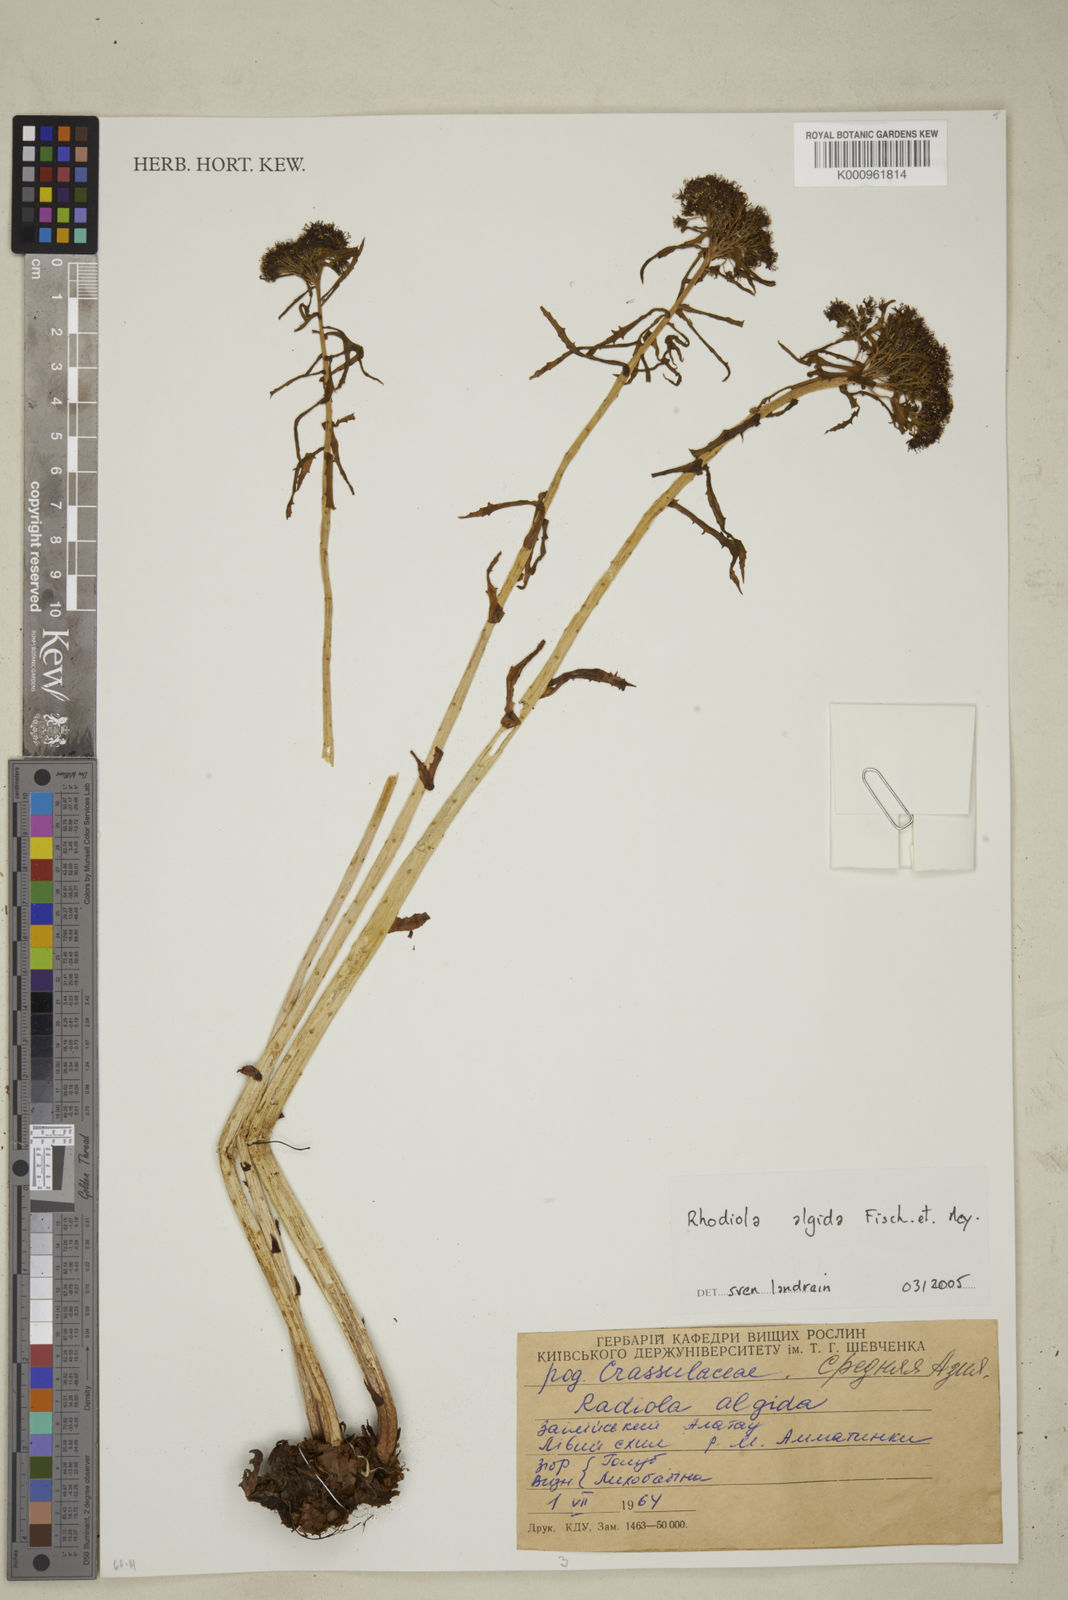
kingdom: Plantae
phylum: Tracheophyta
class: Magnoliopsida
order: Saxifragales
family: Crassulaceae
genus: Rhodiola
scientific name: Rhodiola
